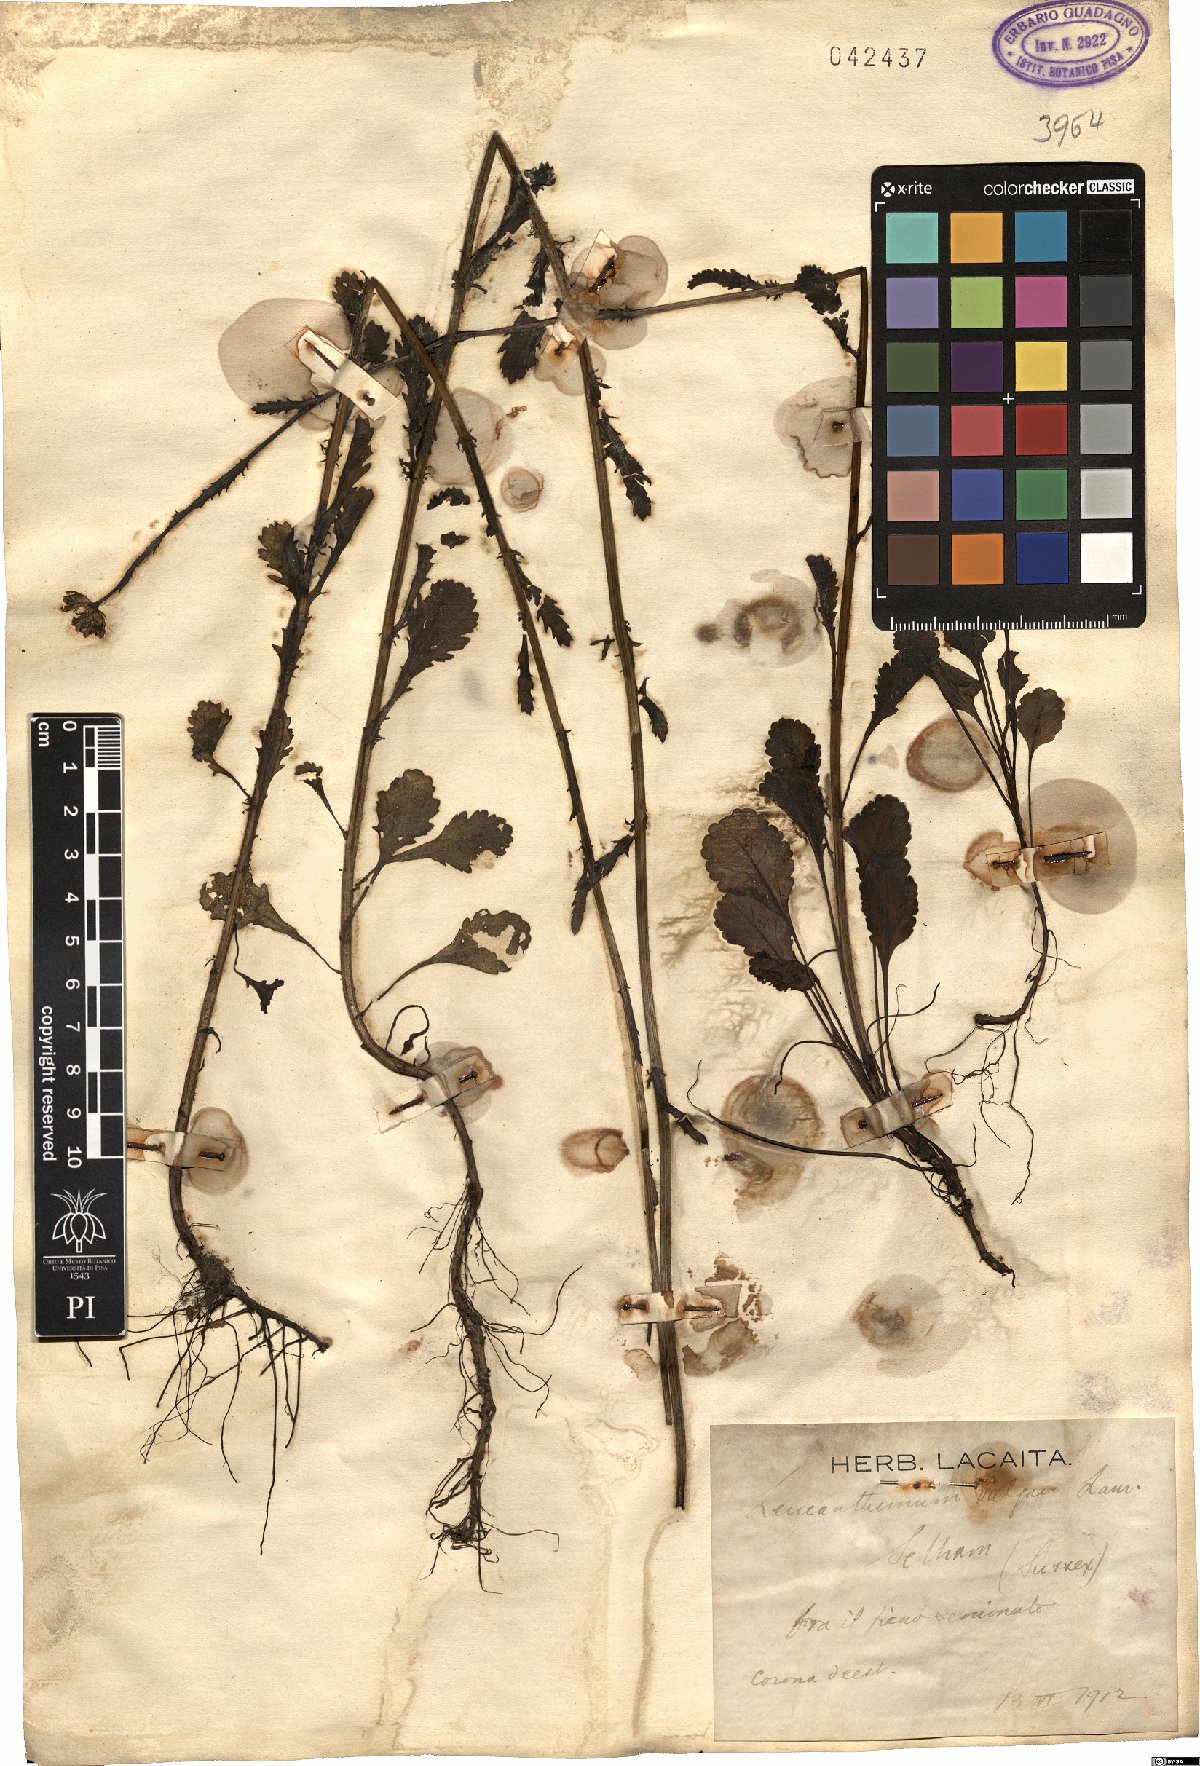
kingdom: Plantae
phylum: Tracheophyta
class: Magnoliopsida
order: Asterales
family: Asteraceae
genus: Leucanthemum
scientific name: Leucanthemum vulgare
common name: Oxeye daisy
